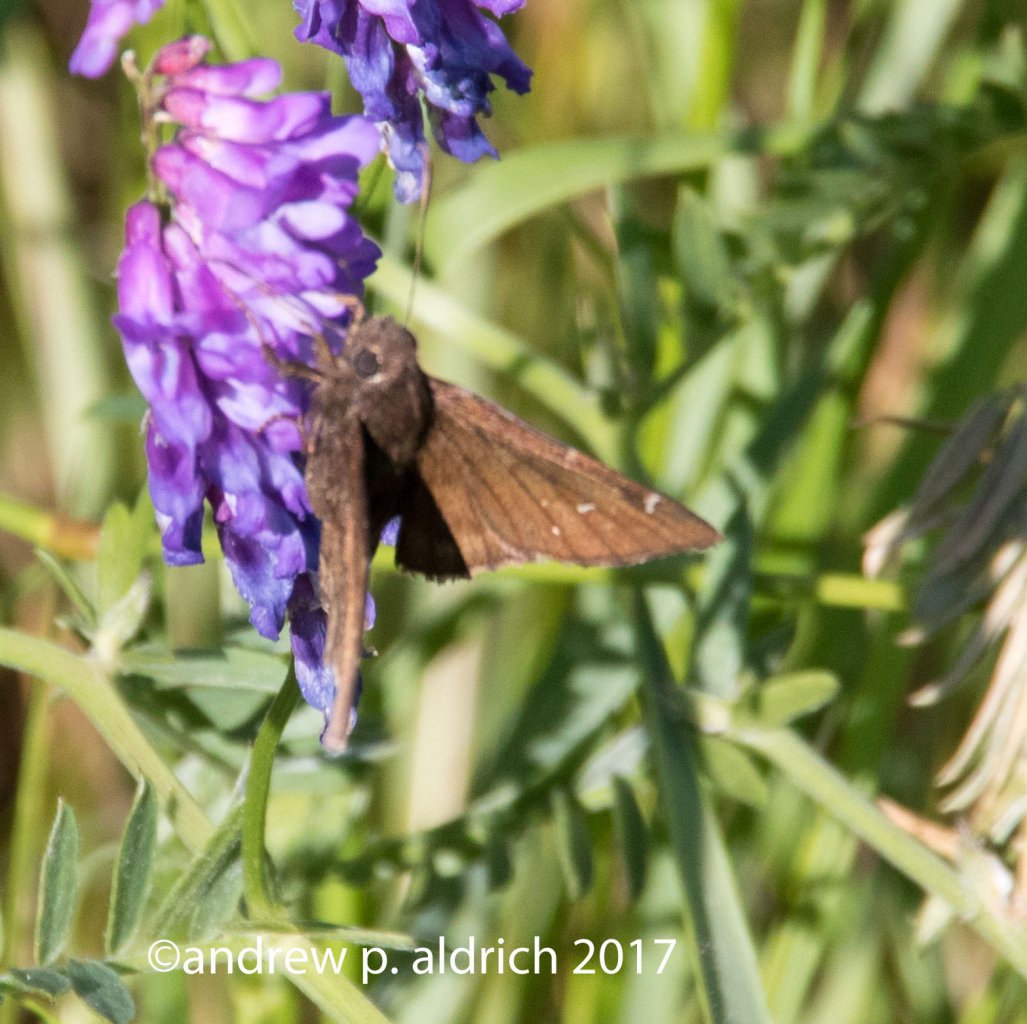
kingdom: Animalia
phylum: Arthropoda
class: Insecta
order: Lepidoptera
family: Hesperiidae
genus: Autochton
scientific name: Autochton
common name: Northern Cloudywing
